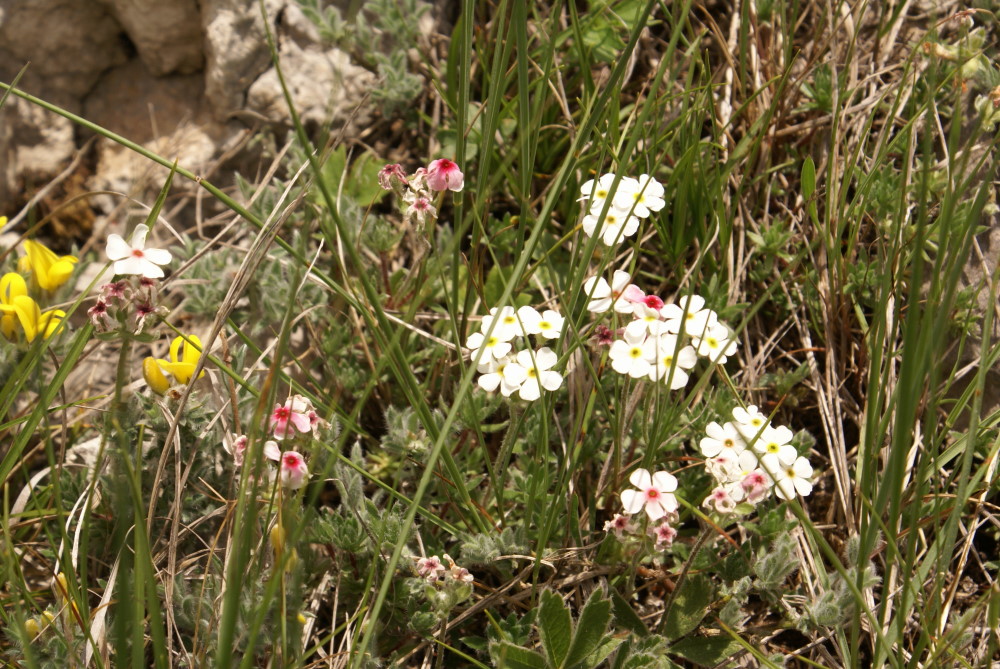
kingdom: Plantae
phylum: Tracheophyta
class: Magnoliopsida
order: Ericales
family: Primulaceae
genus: Androsace
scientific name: Androsace villosa
